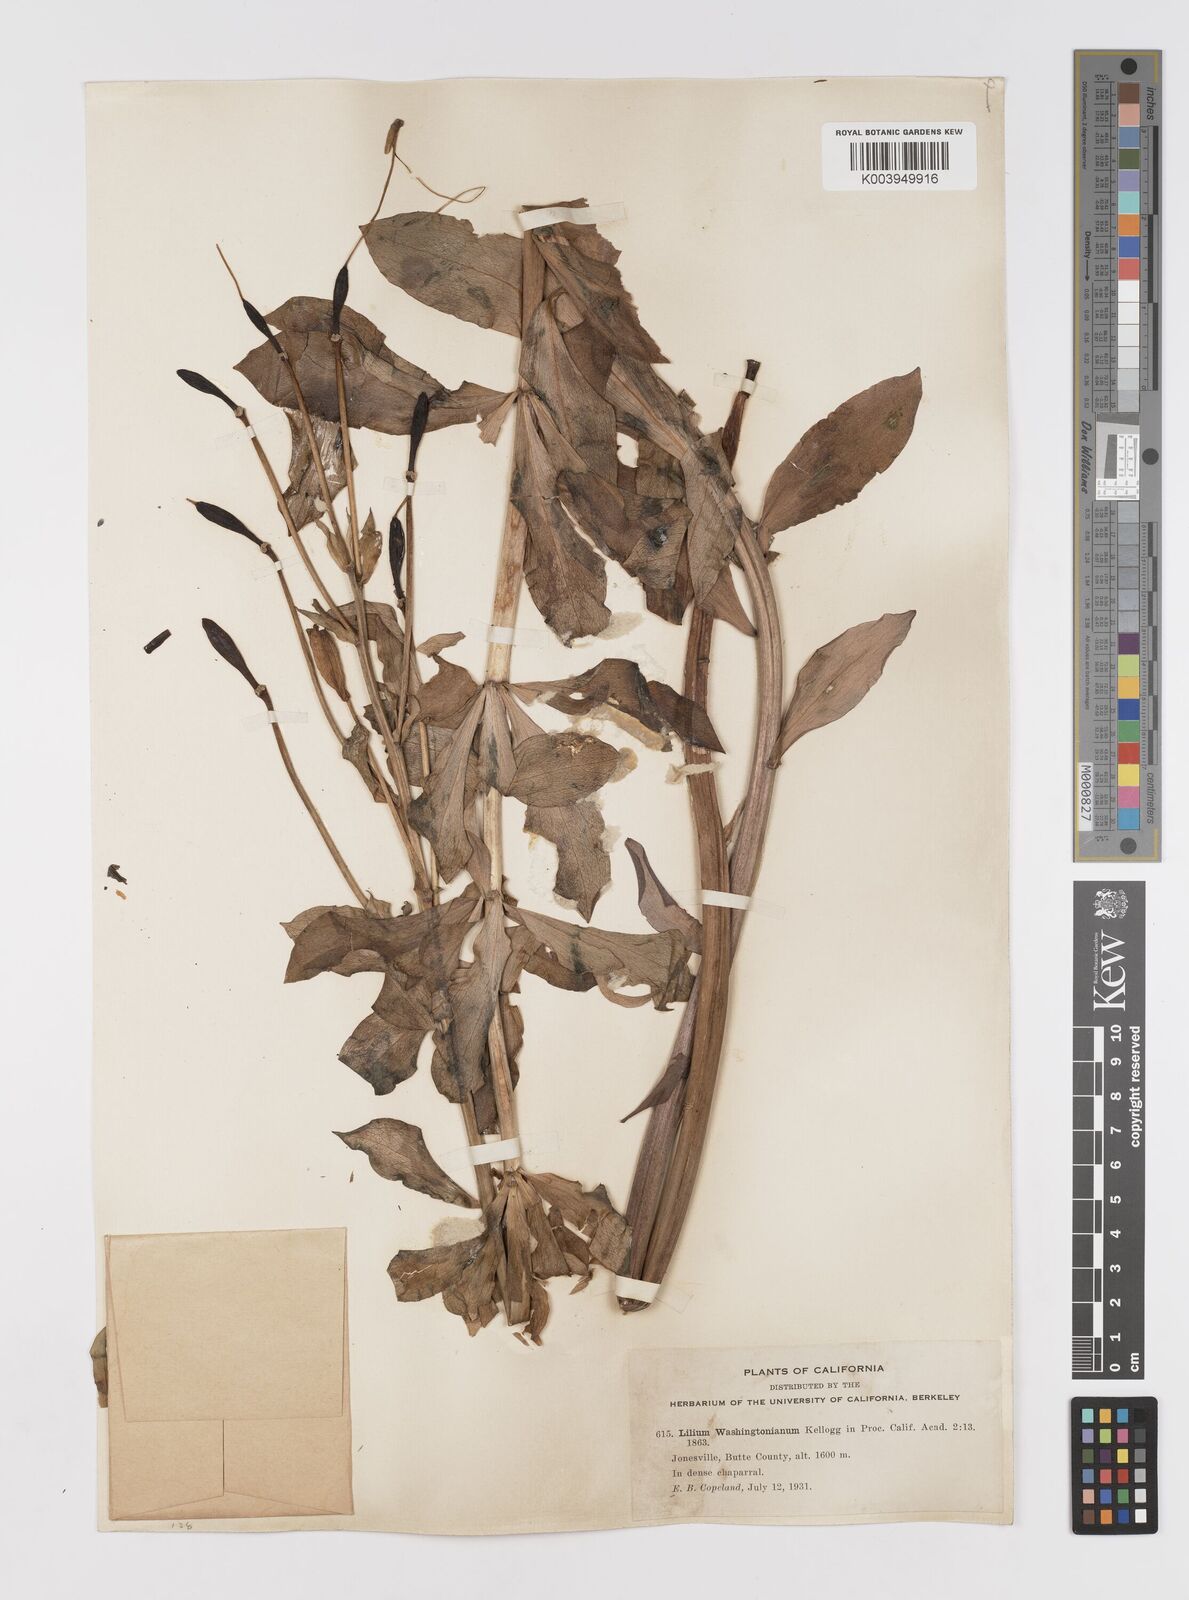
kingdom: Plantae
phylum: Tracheophyta
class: Liliopsida
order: Liliales
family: Liliaceae
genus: Lilium
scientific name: Lilium washingtonianum
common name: Washington lily
